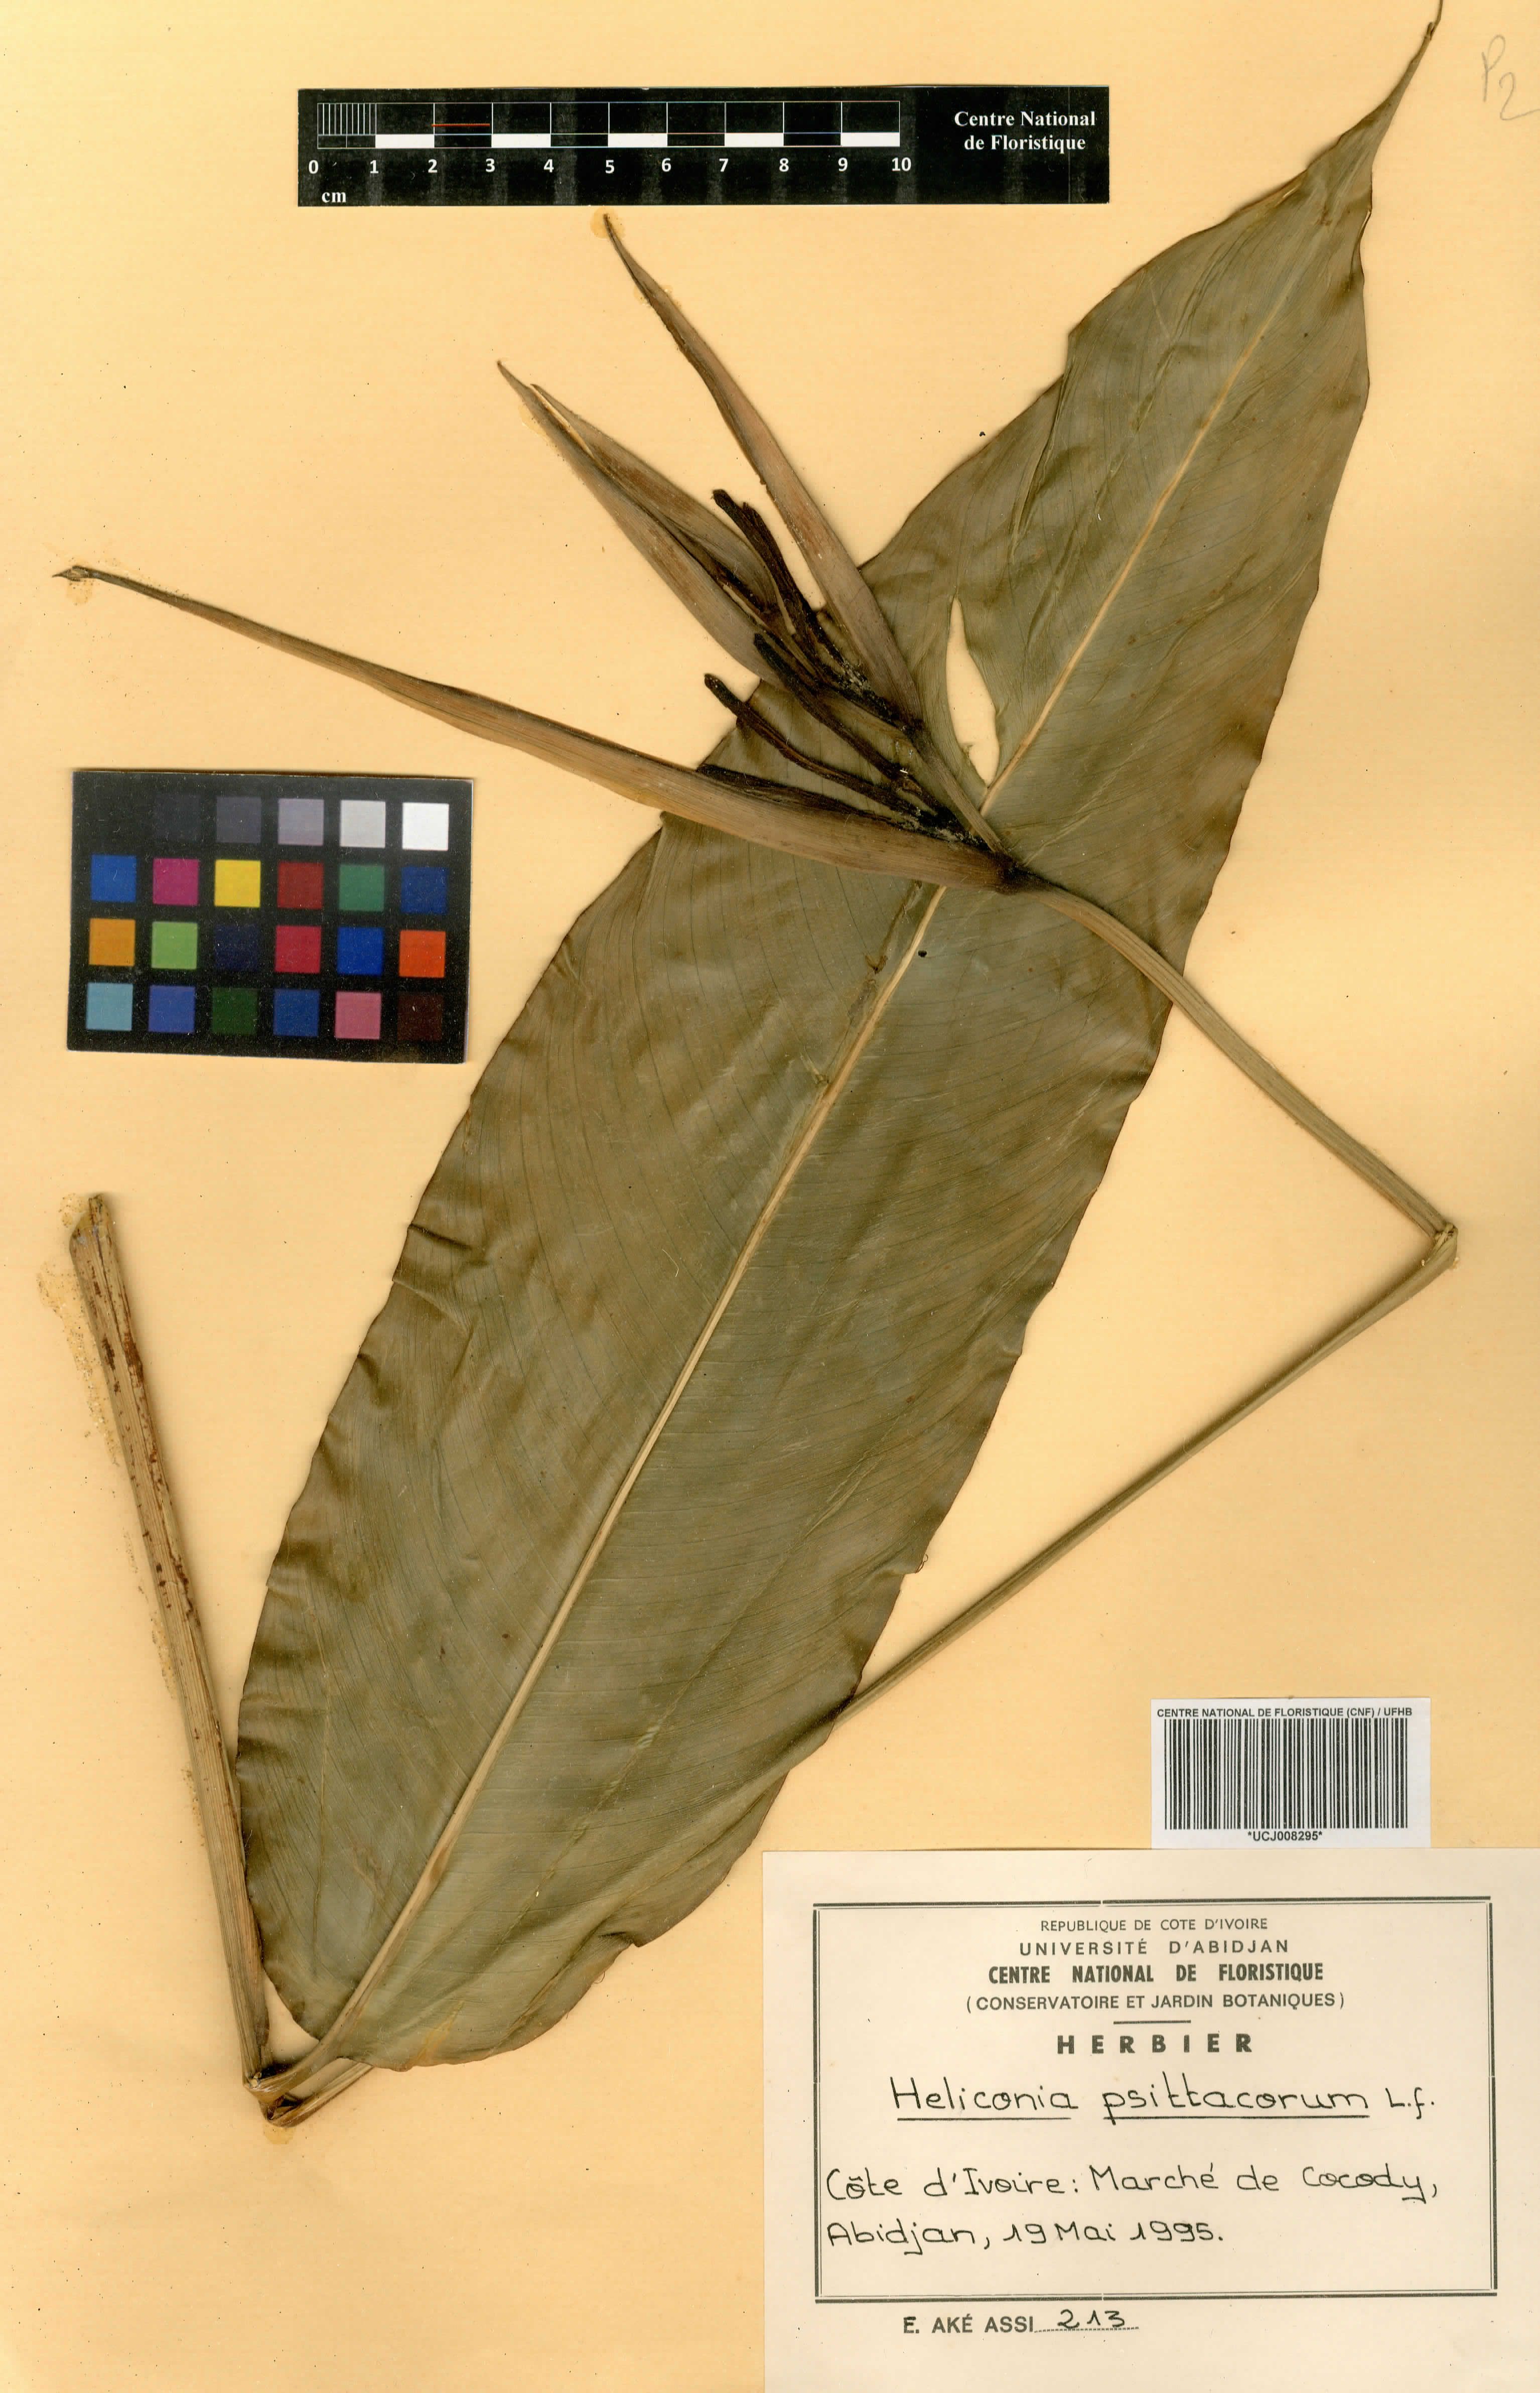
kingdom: Plantae
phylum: Tracheophyta
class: Liliopsida
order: Zingiberales
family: Heliconiaceae
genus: Heliconia
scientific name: Heliconia psittacorum
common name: Parrot's-flower
